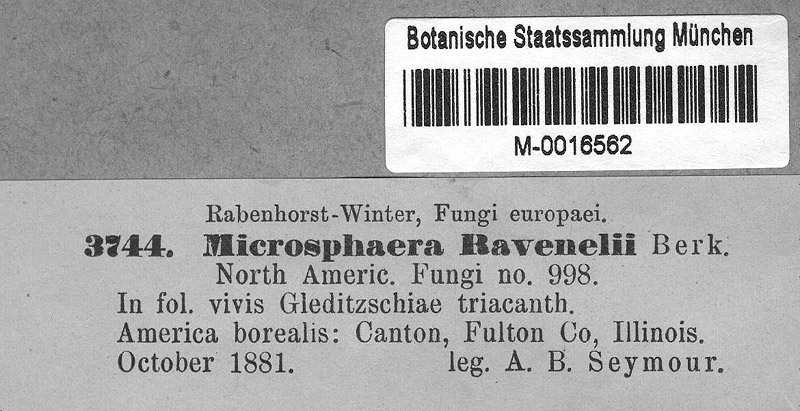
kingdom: Plantae
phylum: Tracheophyta
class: Magnoliopsida
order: Fabales
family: Fabaceae
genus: Gleditsia
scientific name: Gleditsia aquatica
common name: Swamp-locust
